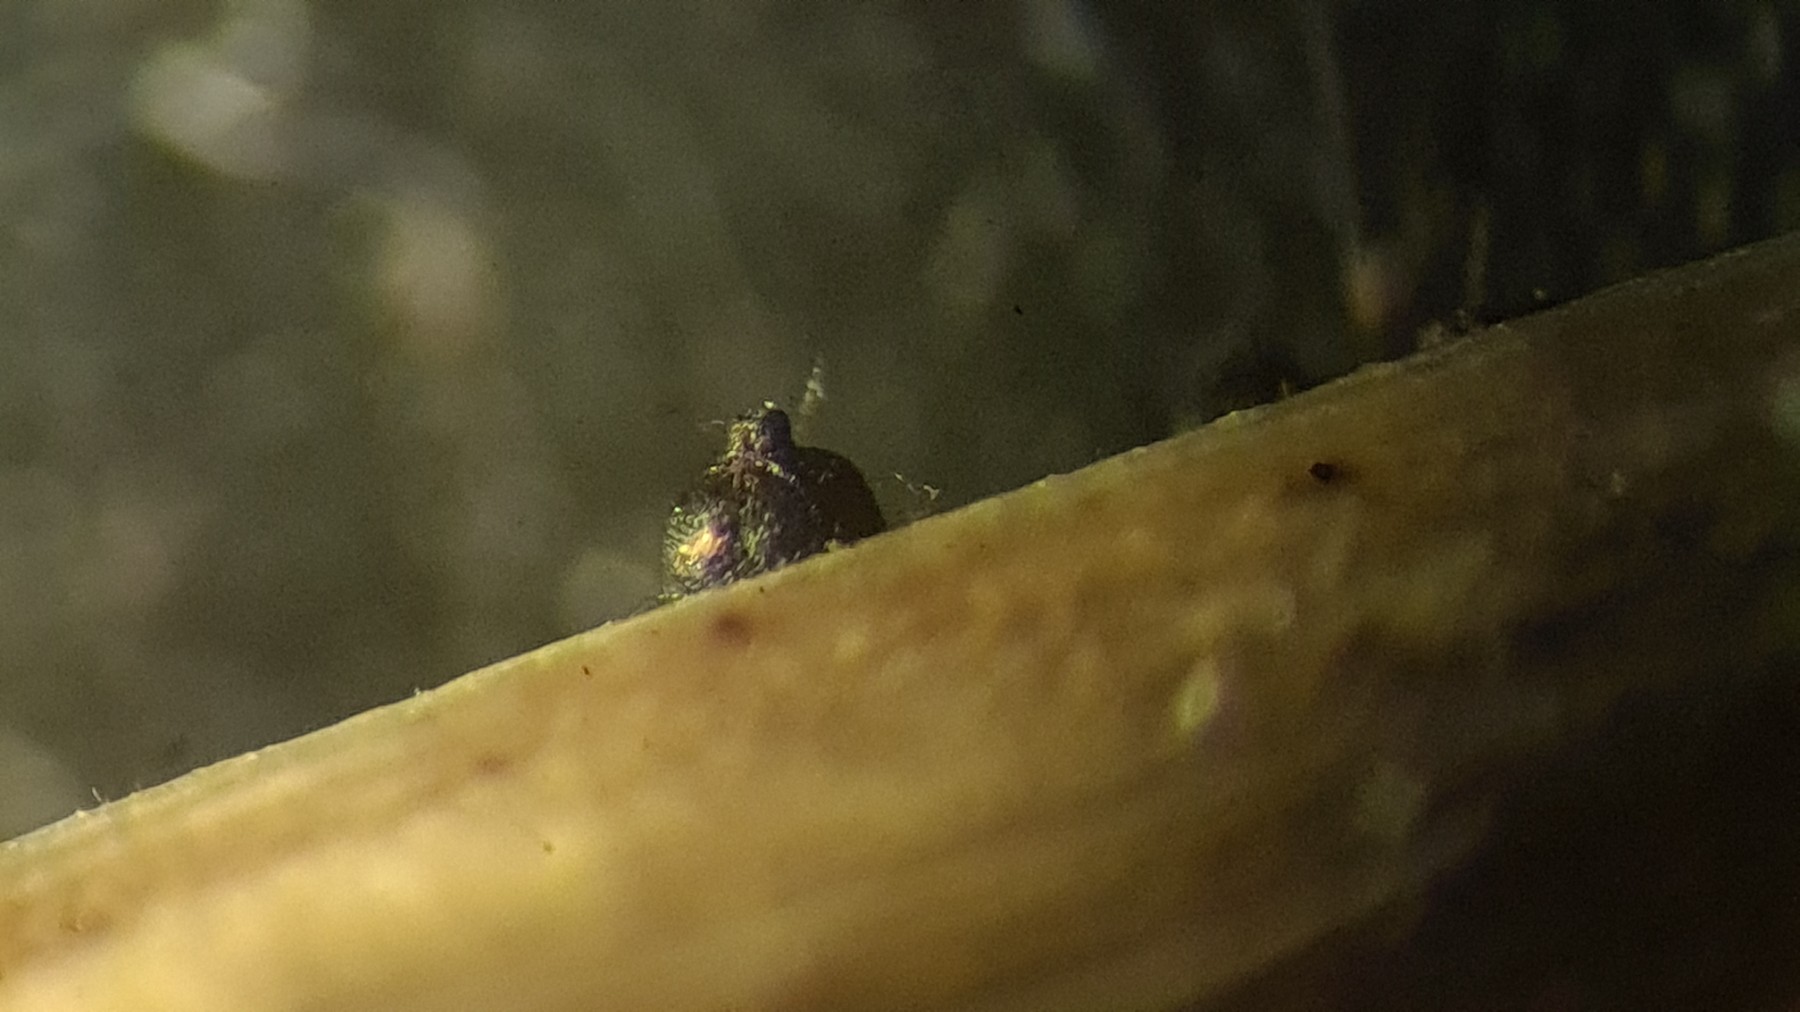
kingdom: Fungi
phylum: Ascomycota
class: Dothideomycetes
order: Pleosporales
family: Leptosphaeriaceae
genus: Leptosphaeria
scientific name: Leptosphaeria acuta
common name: spids kulkegle
